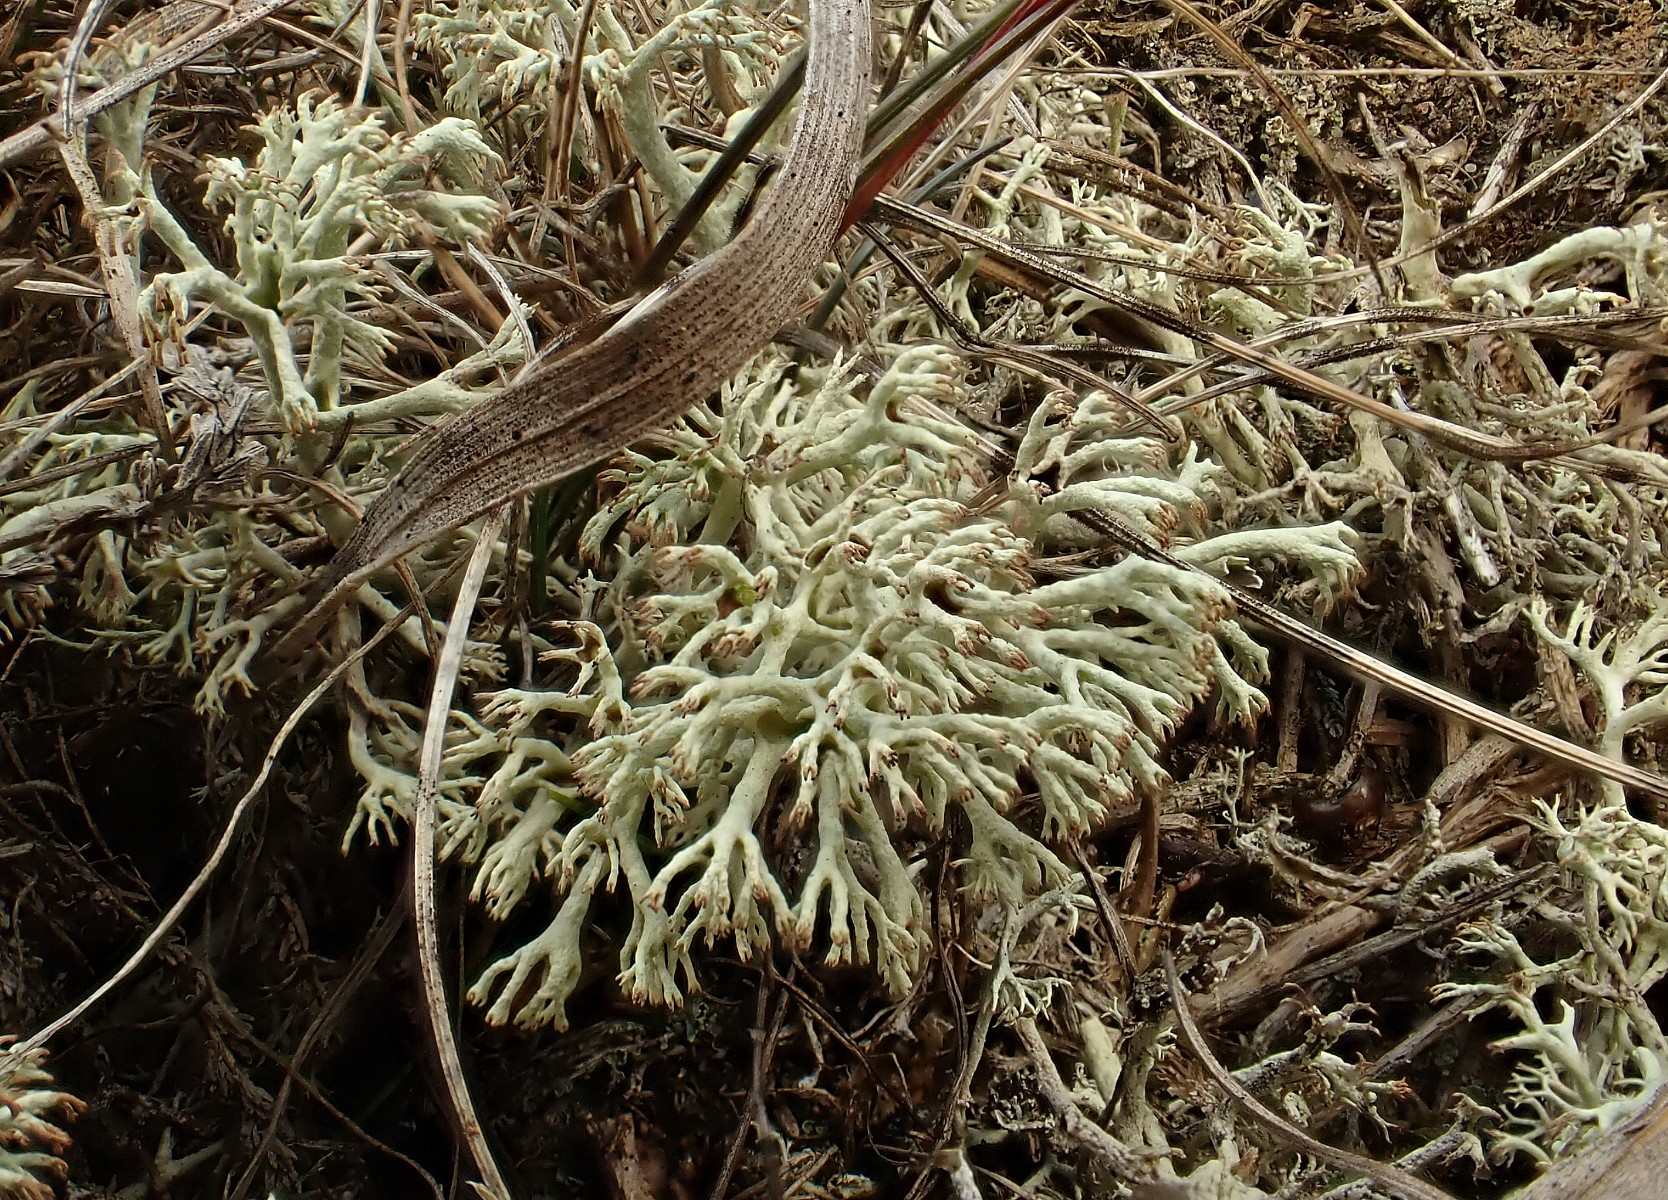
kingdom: Fungi
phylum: Ascomycota
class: Lecanoromycetes
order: Lecanorales
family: Cladoniaceae
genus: Cladonia
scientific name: Cladonia ciliata
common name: spinkel rensdyrlav
